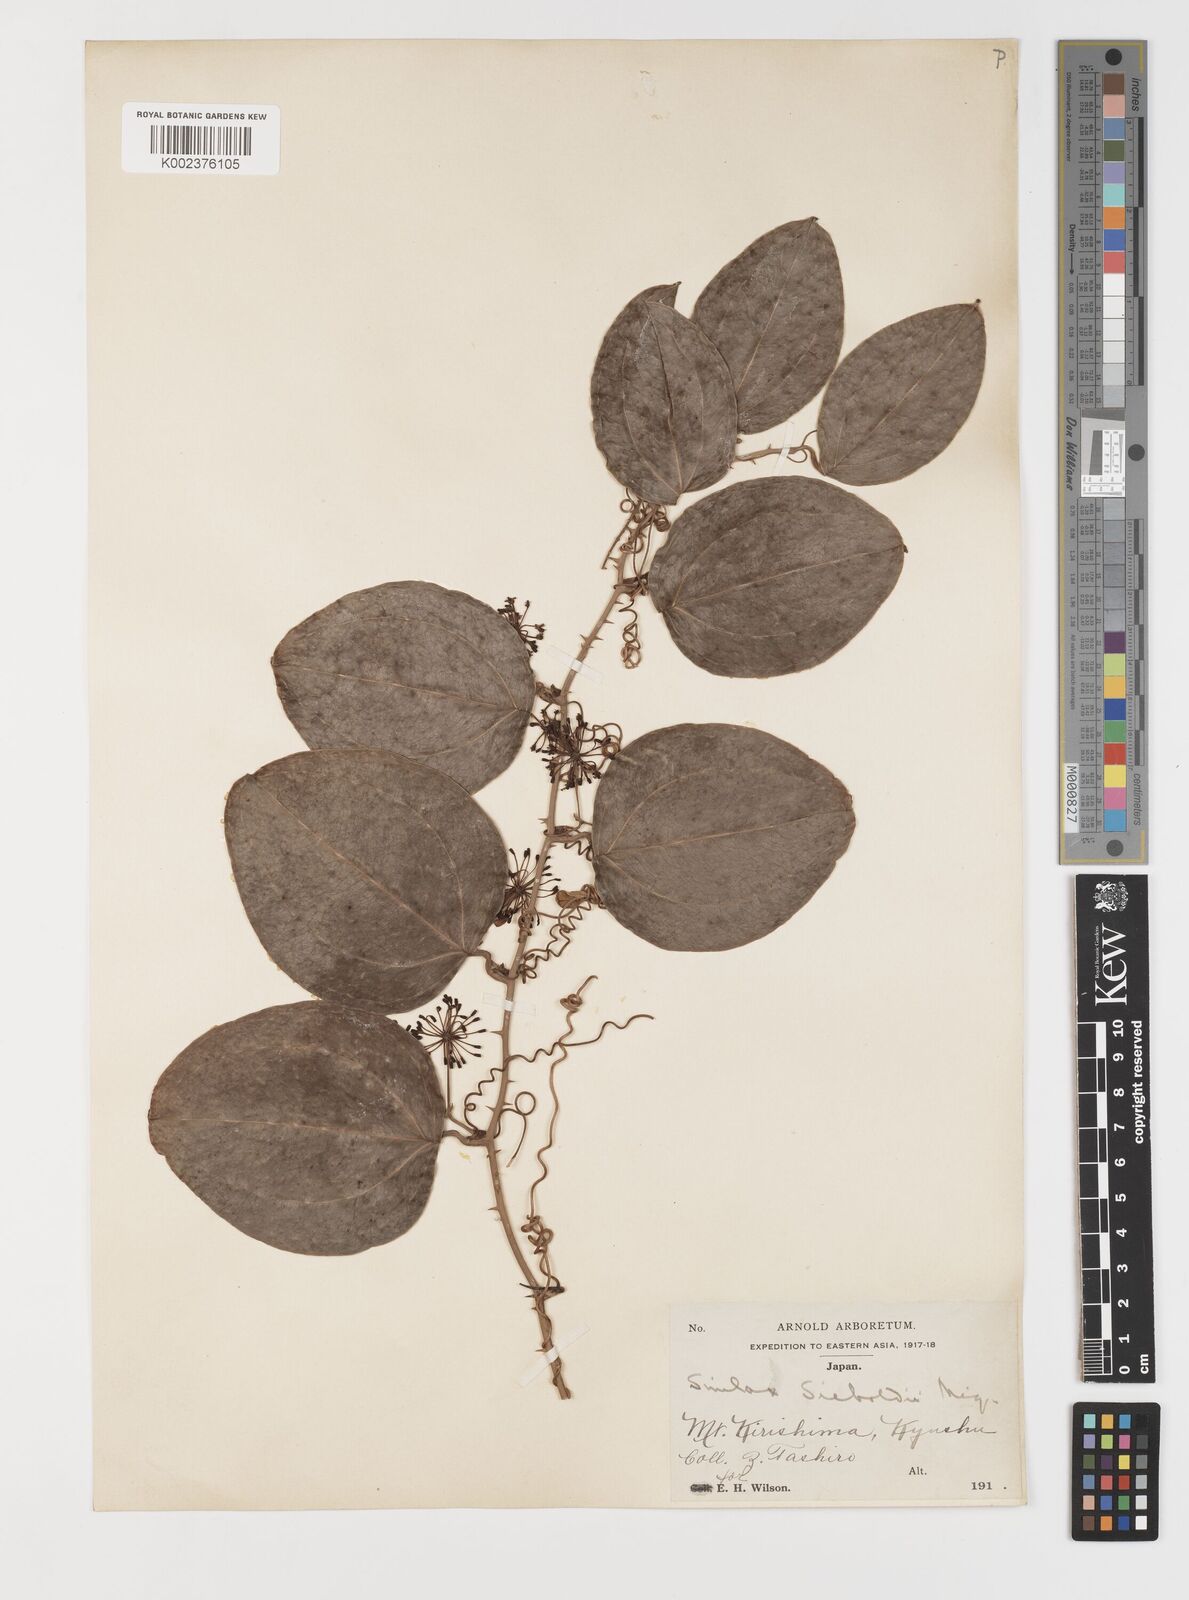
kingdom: Plantae
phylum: Tracheophyta
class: Liliopsida
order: Liliales
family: Smilacaceae
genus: Smilax
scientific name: Smilax bracteata
